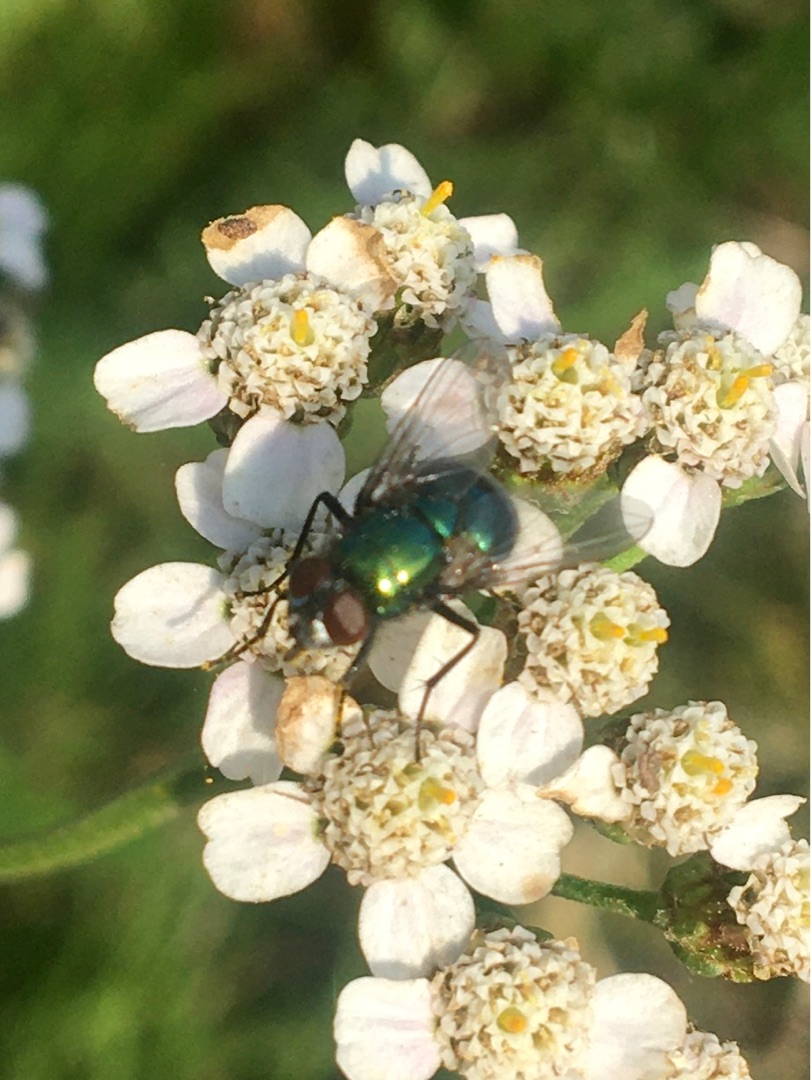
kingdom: Animalia
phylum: Arthropoda
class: Insecta
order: Diptera
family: Muscidae
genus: Neomyia
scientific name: Neomyia cornicina
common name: Grøn kokasseflue
